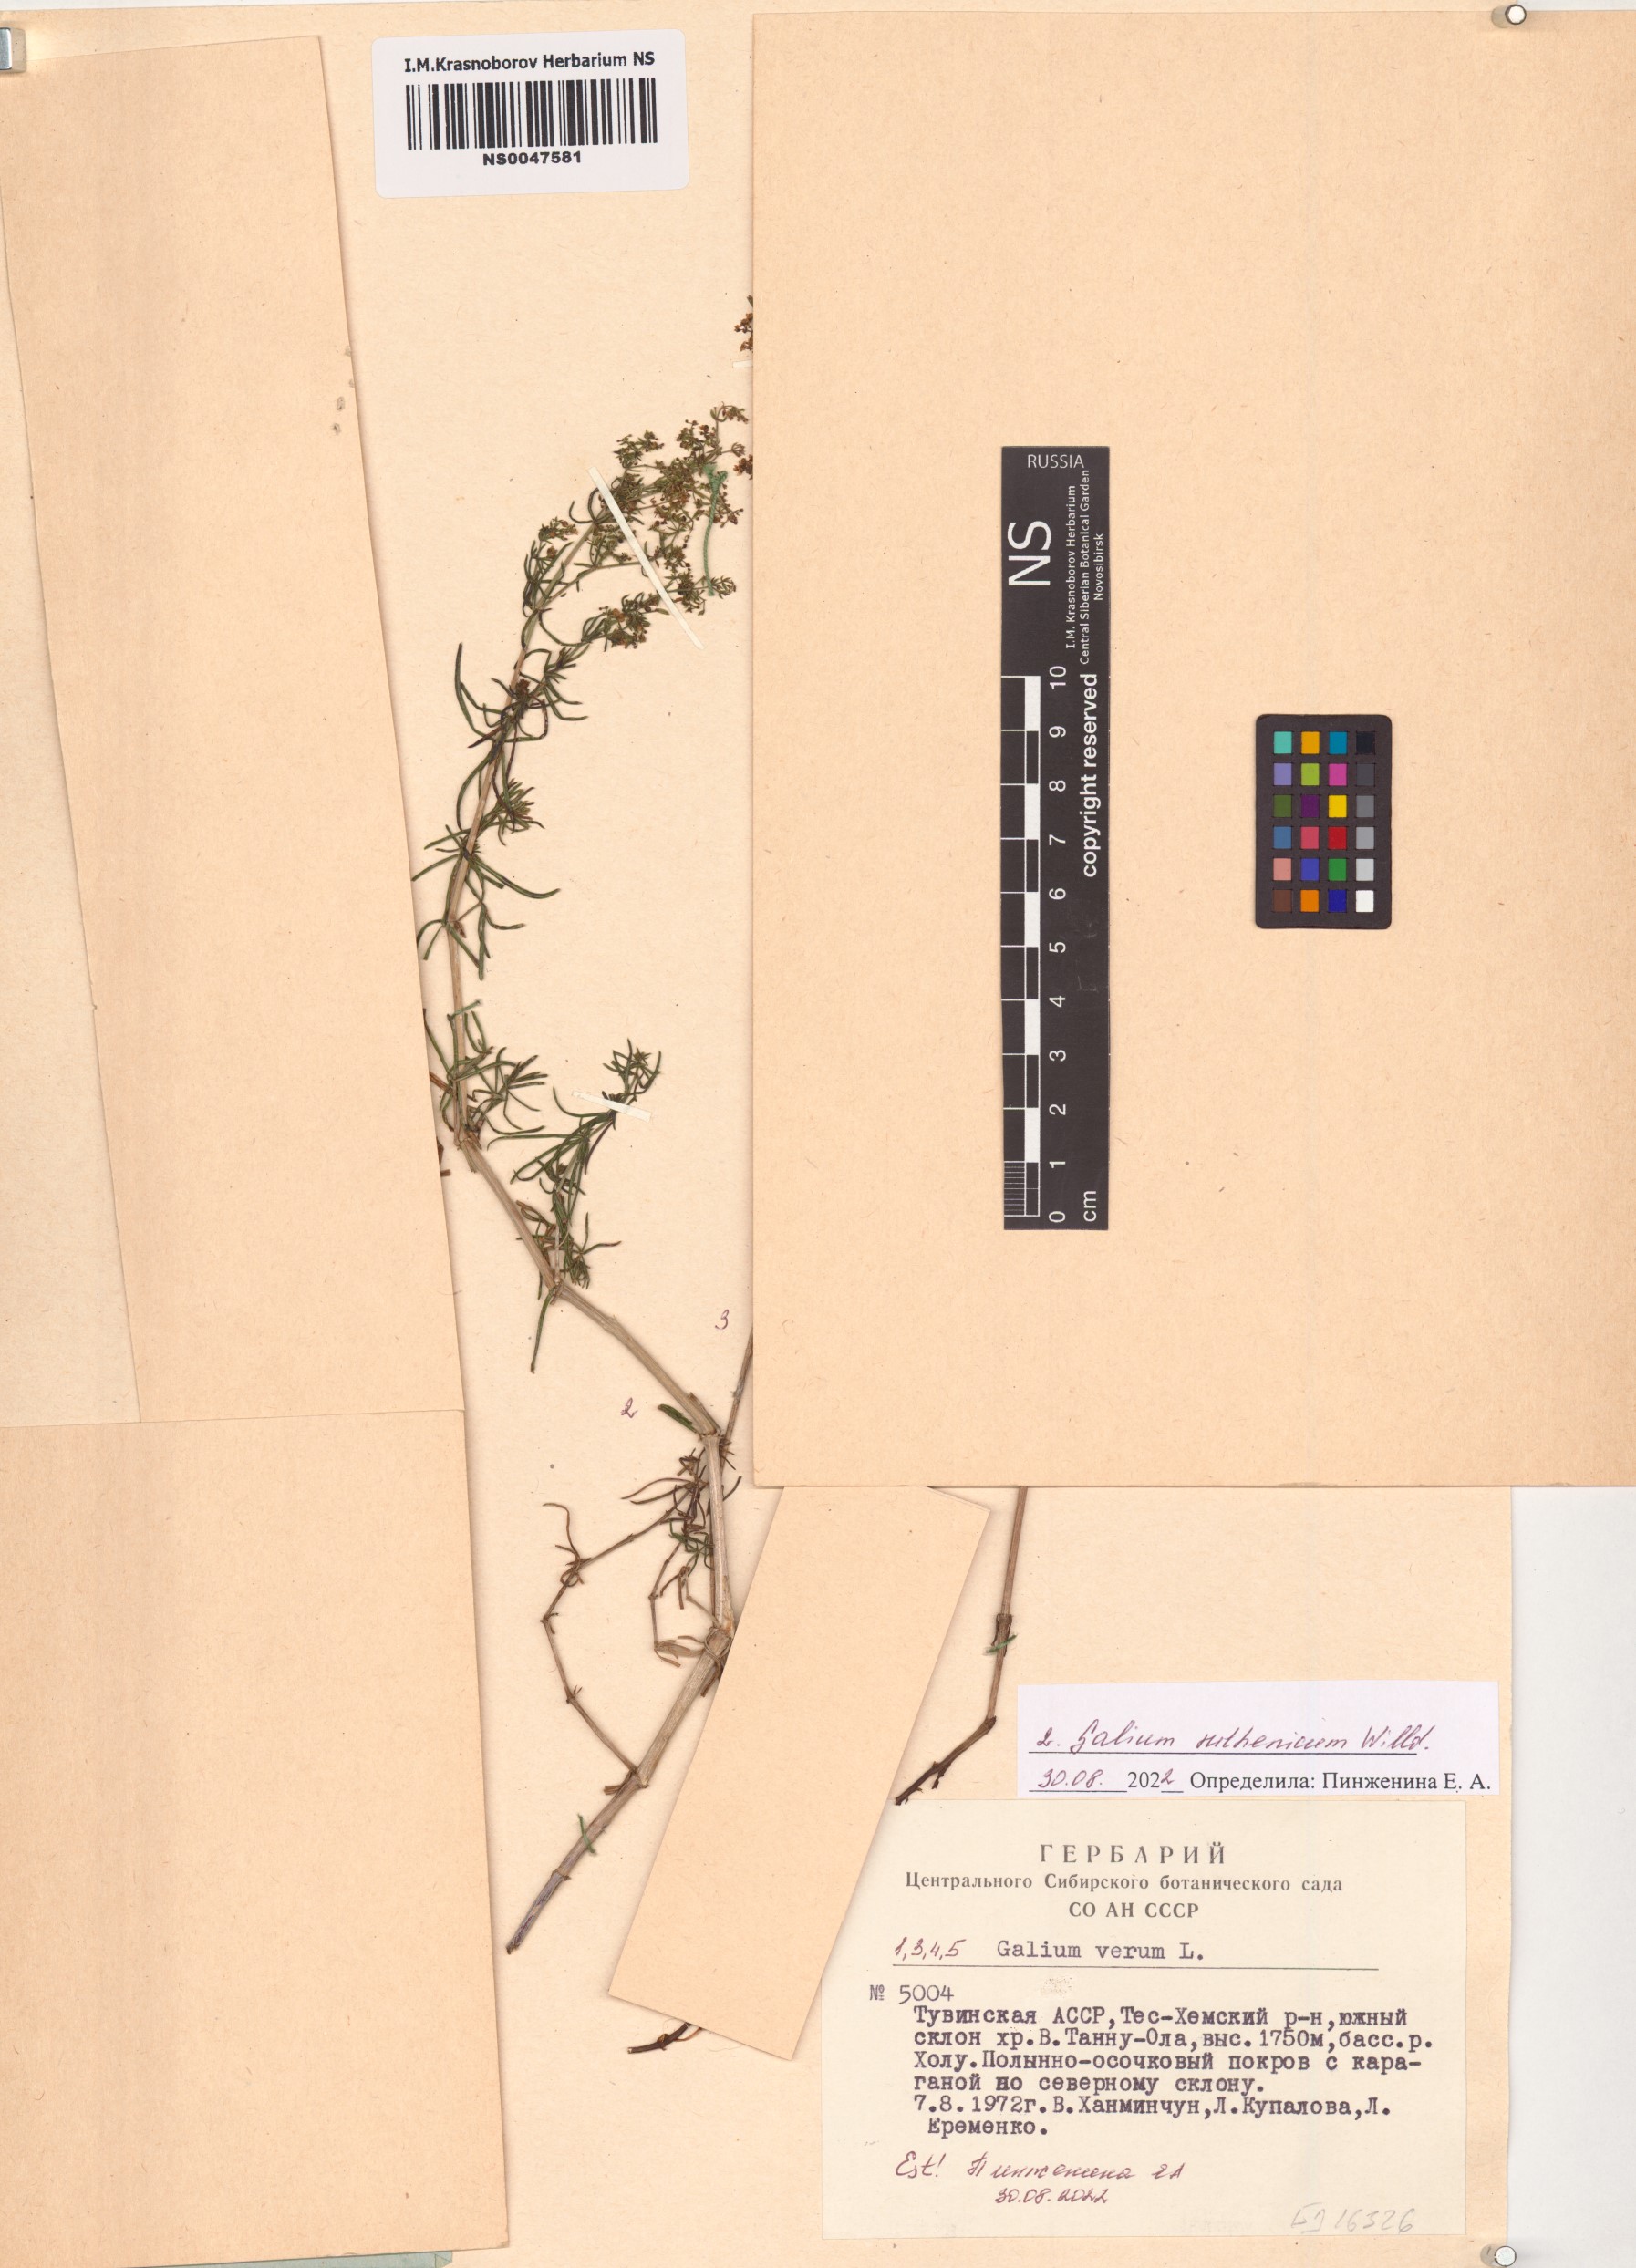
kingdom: Plantae
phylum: Tracheophyta
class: Magnoliopsida
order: Gentianales
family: Rubiaceae
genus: Galium
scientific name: Galium verum
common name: Lady's bedstraw
